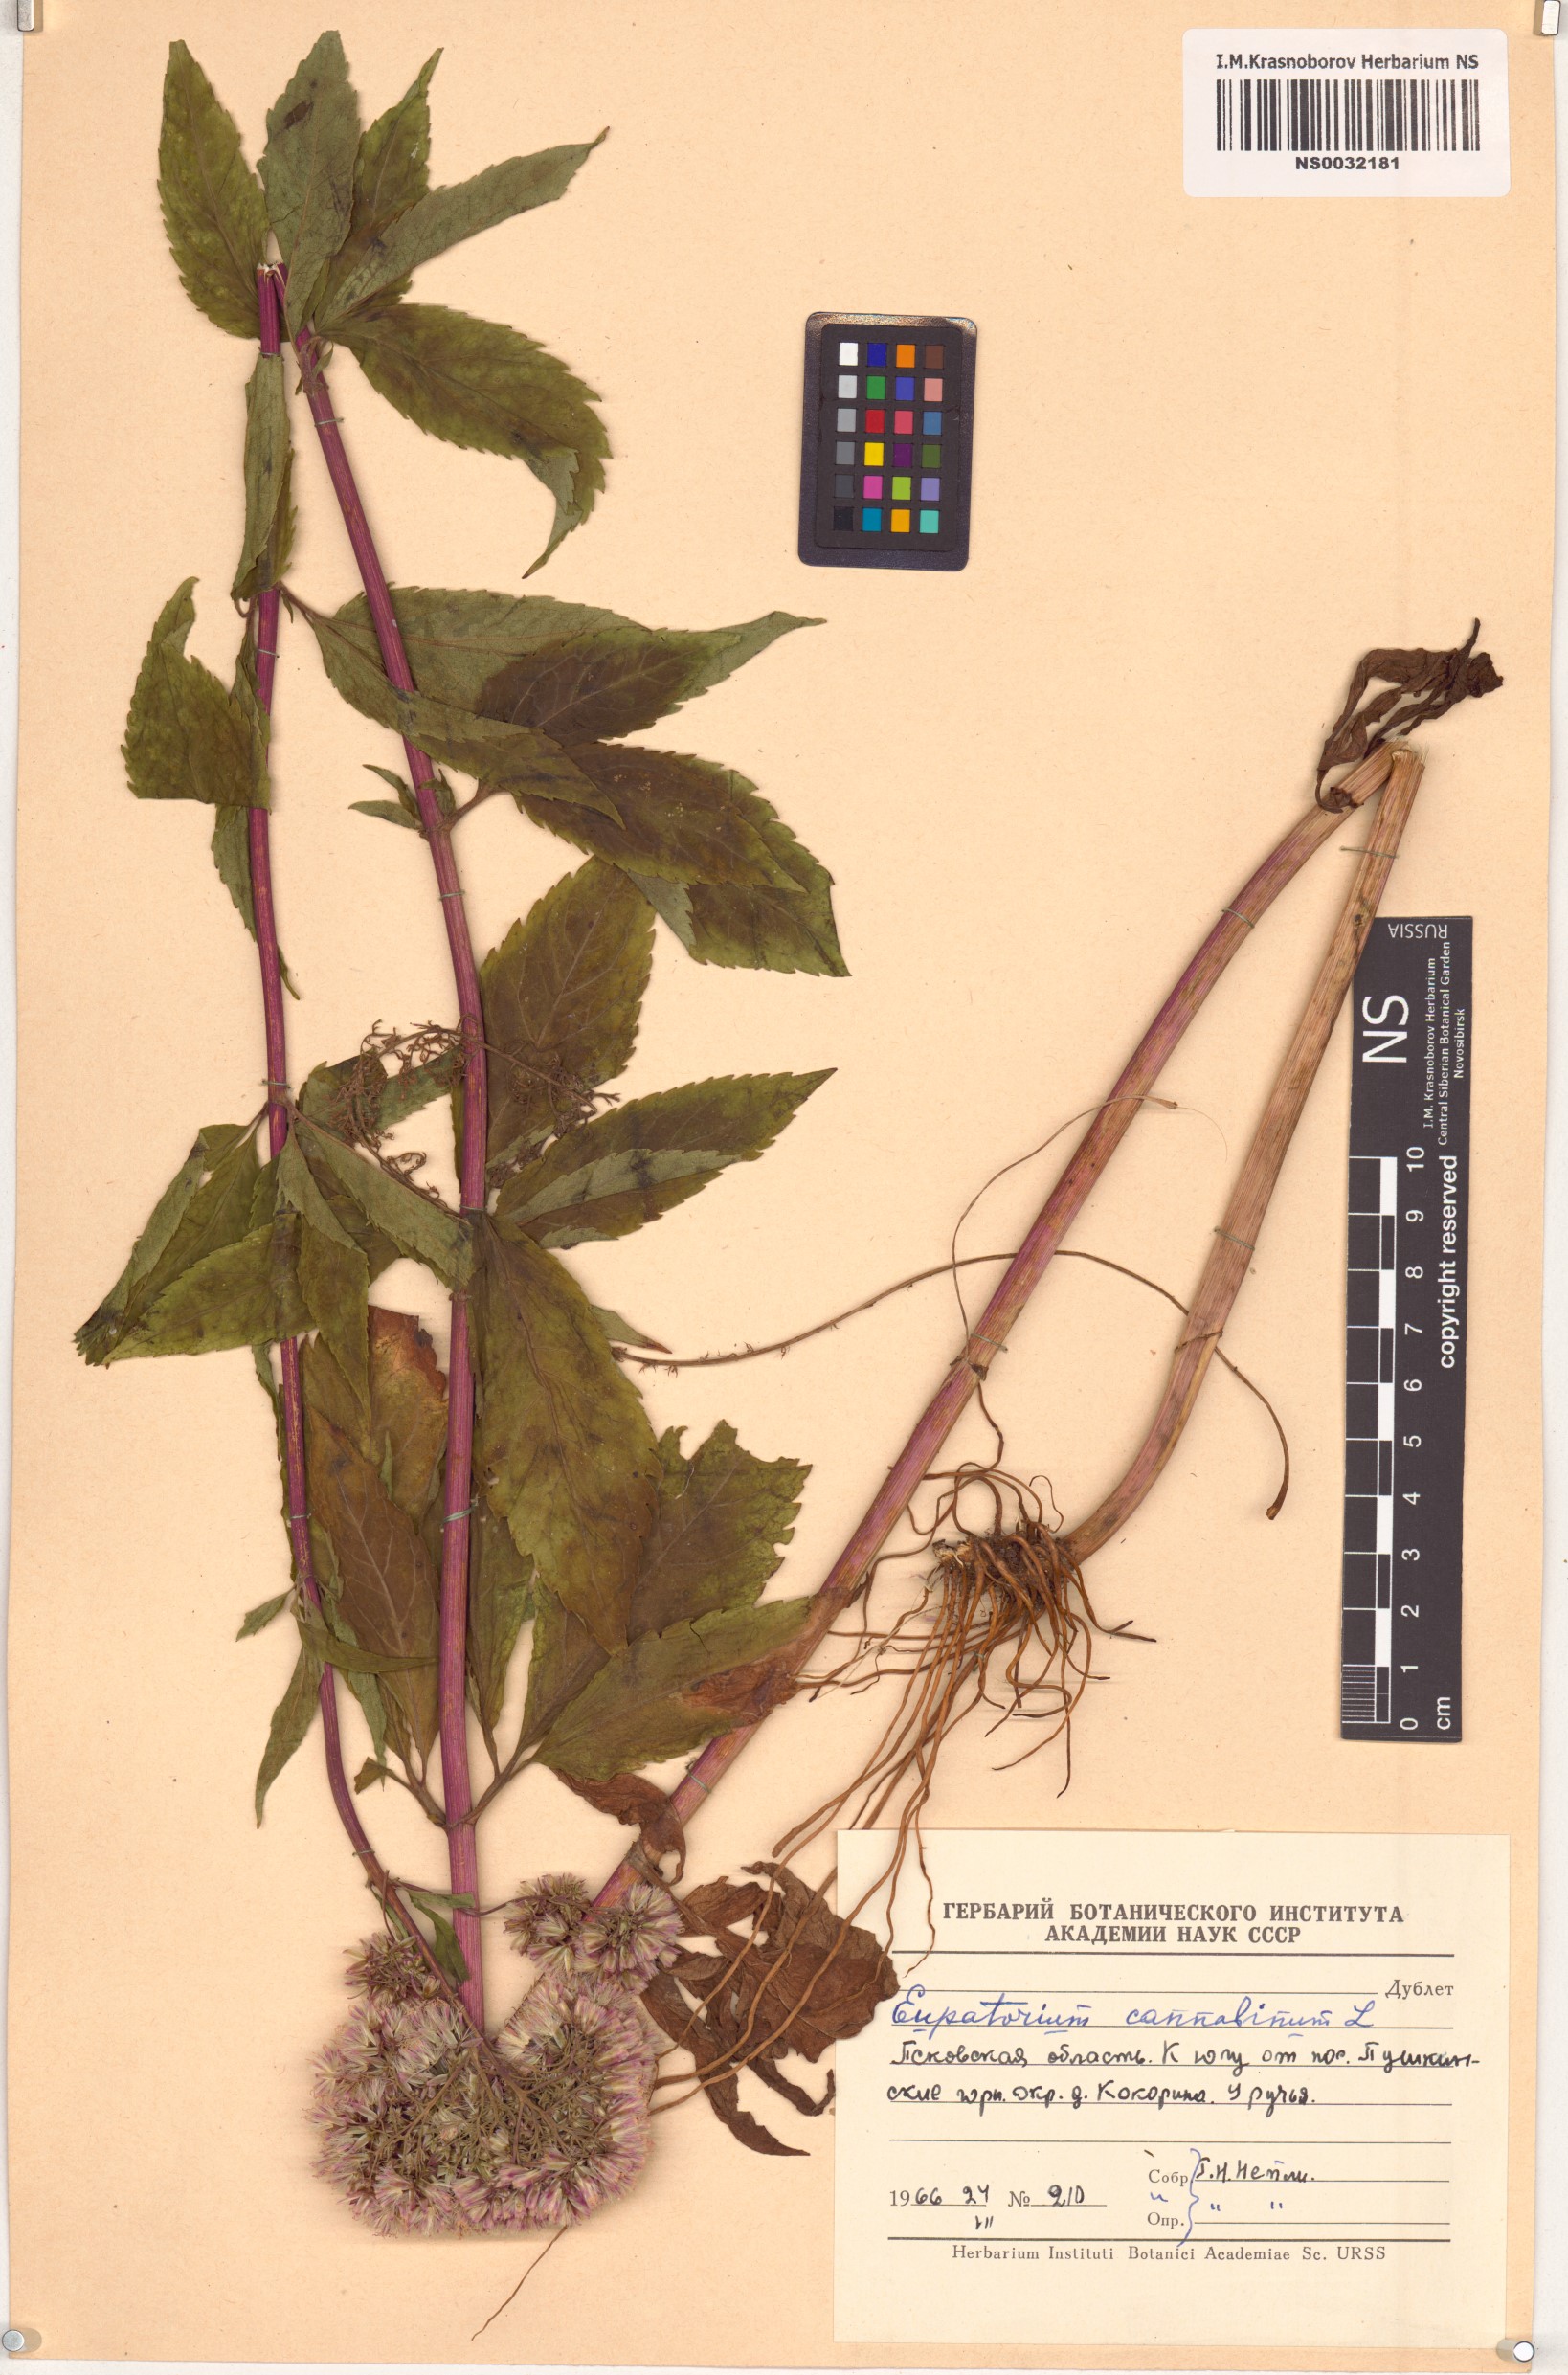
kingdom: Plantae
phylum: Tracheophyta
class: Magnoliopsida
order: Asterales
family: Asteraceae
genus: Eupatorium
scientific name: Eupatorium cannabinum
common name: Hemp-agrimony
